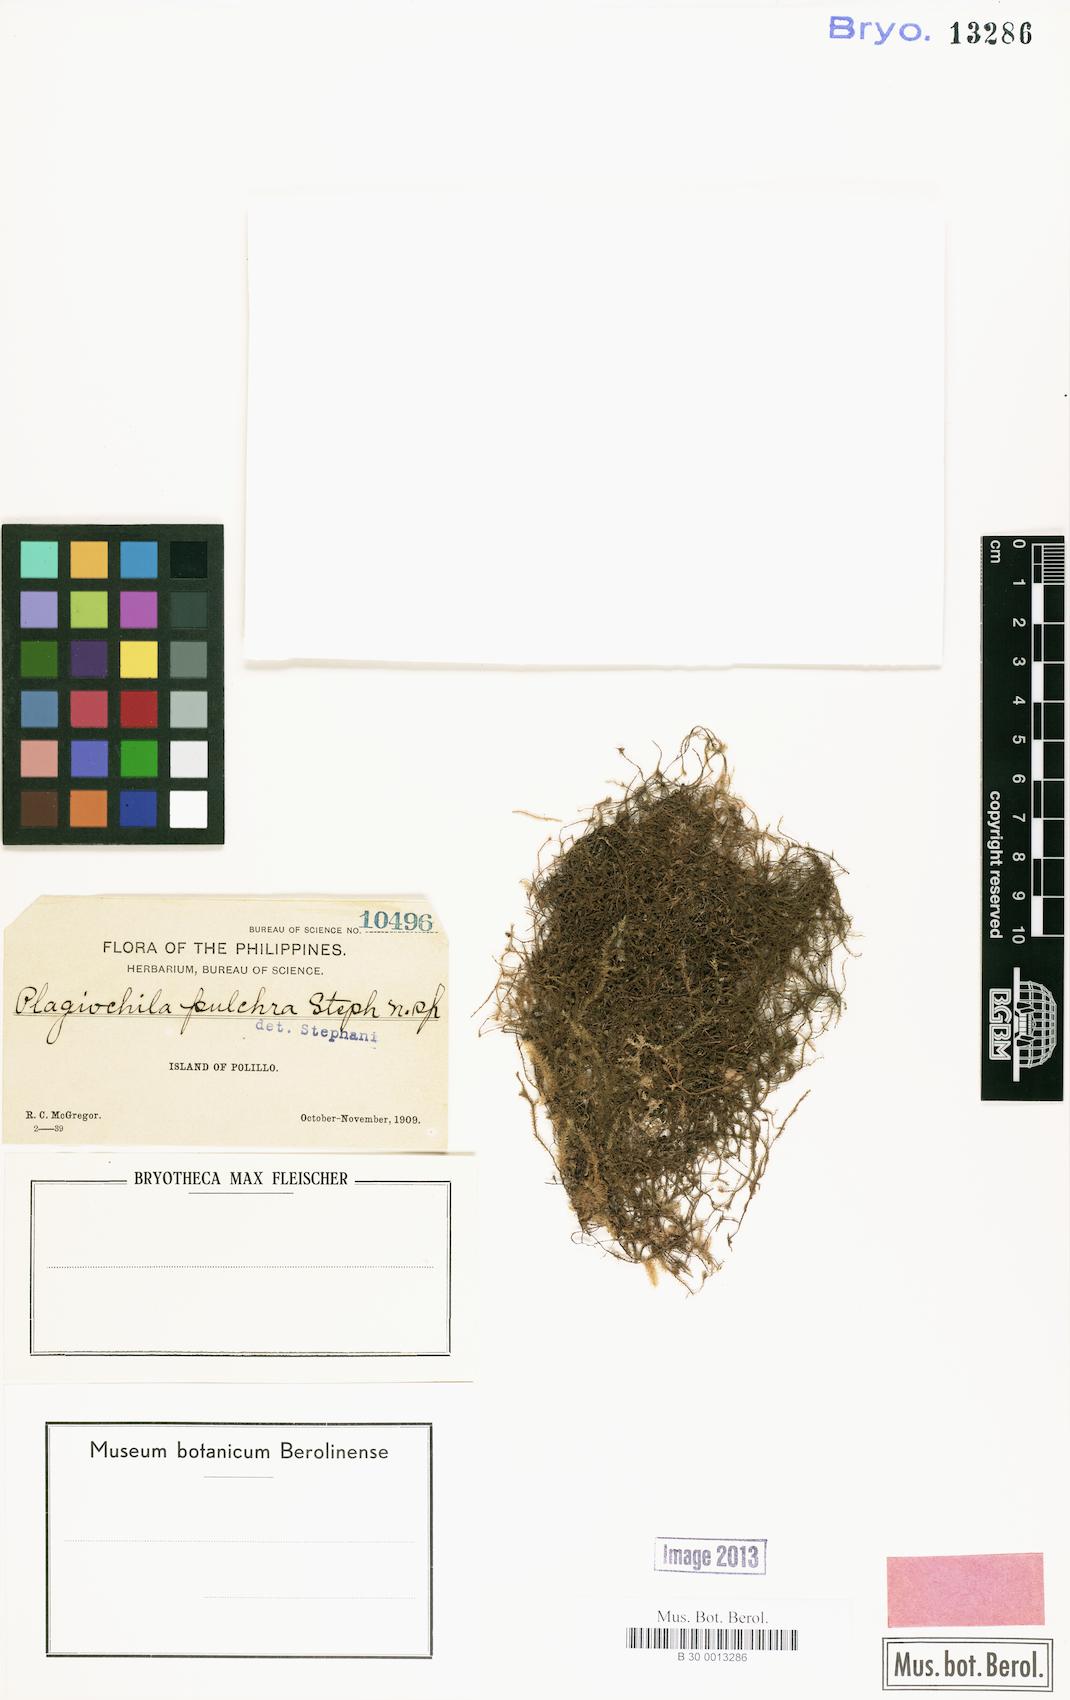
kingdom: Plantae
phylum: Marchantiophyta
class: Jungermanniopsida
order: Jungermanniales
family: Plagiochilaceae
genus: Plagiochila
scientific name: Plagiochila junghuhniana
